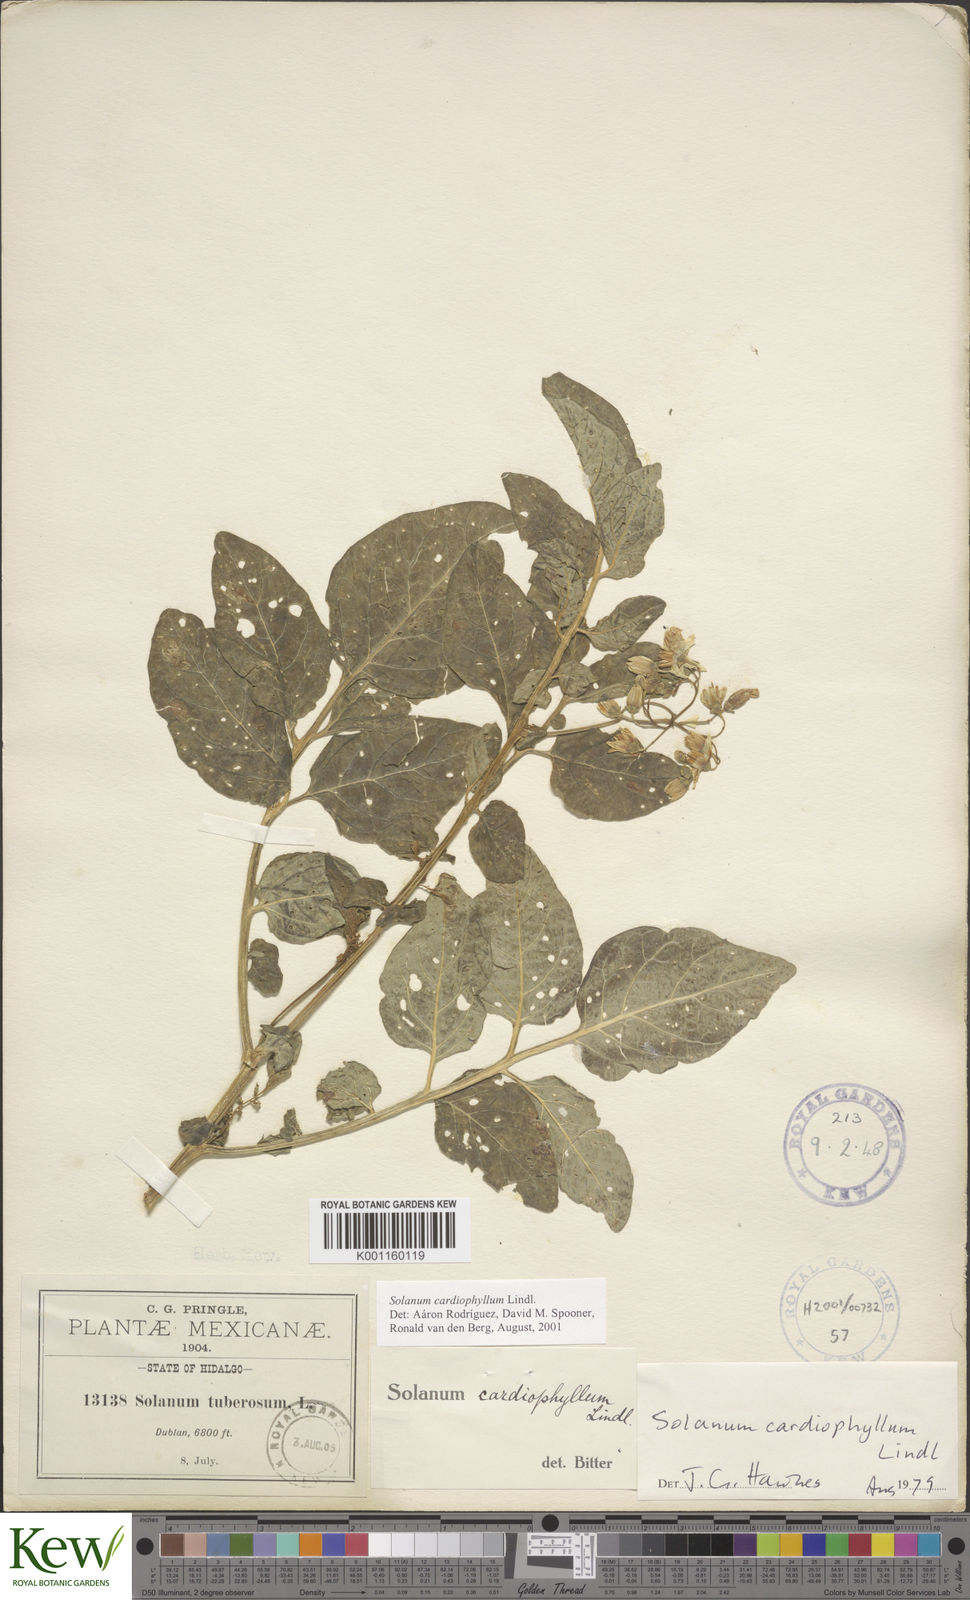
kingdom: Plantae
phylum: Tracheophyta
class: Magnoliopsida
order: Solanales
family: Solanaceae
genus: Solanum
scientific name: Solanum cardiophyllum
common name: Heartleaf horsenettle
